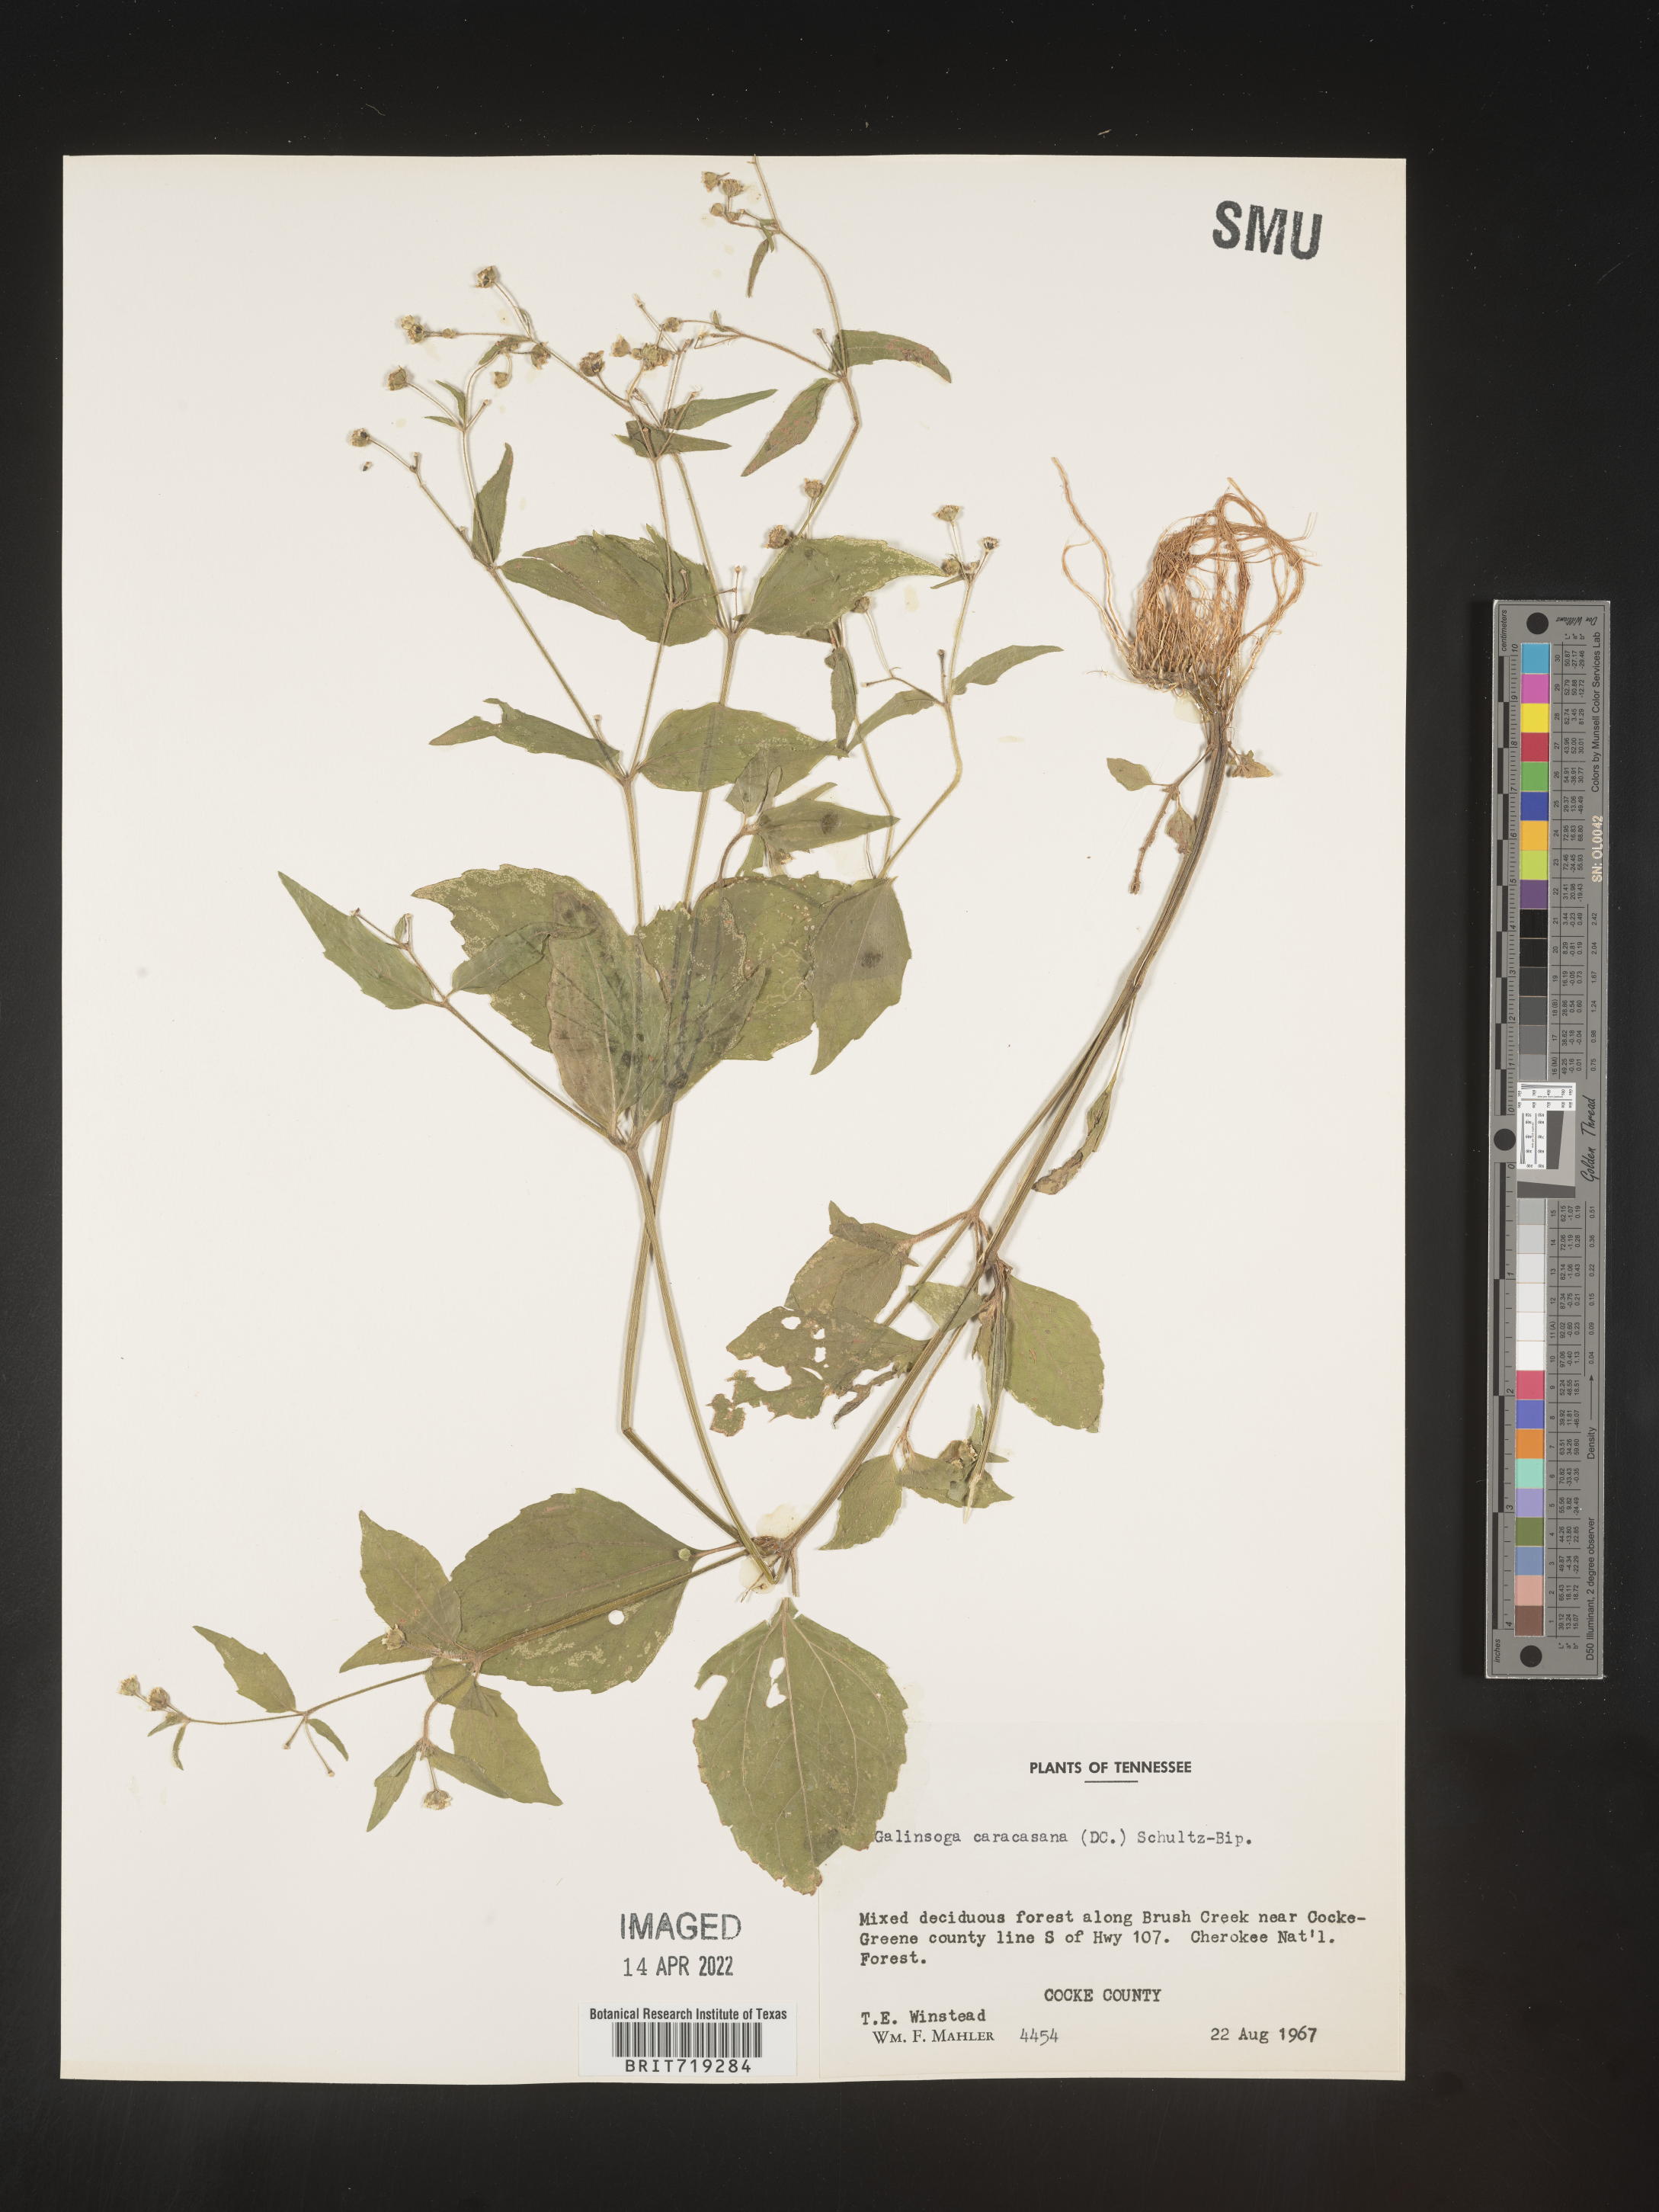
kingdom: Plantae
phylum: Tracheophyta
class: Magnoliopsida
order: Asterales
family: Asteraceae
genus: Galinsoga
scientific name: Galinsoga
